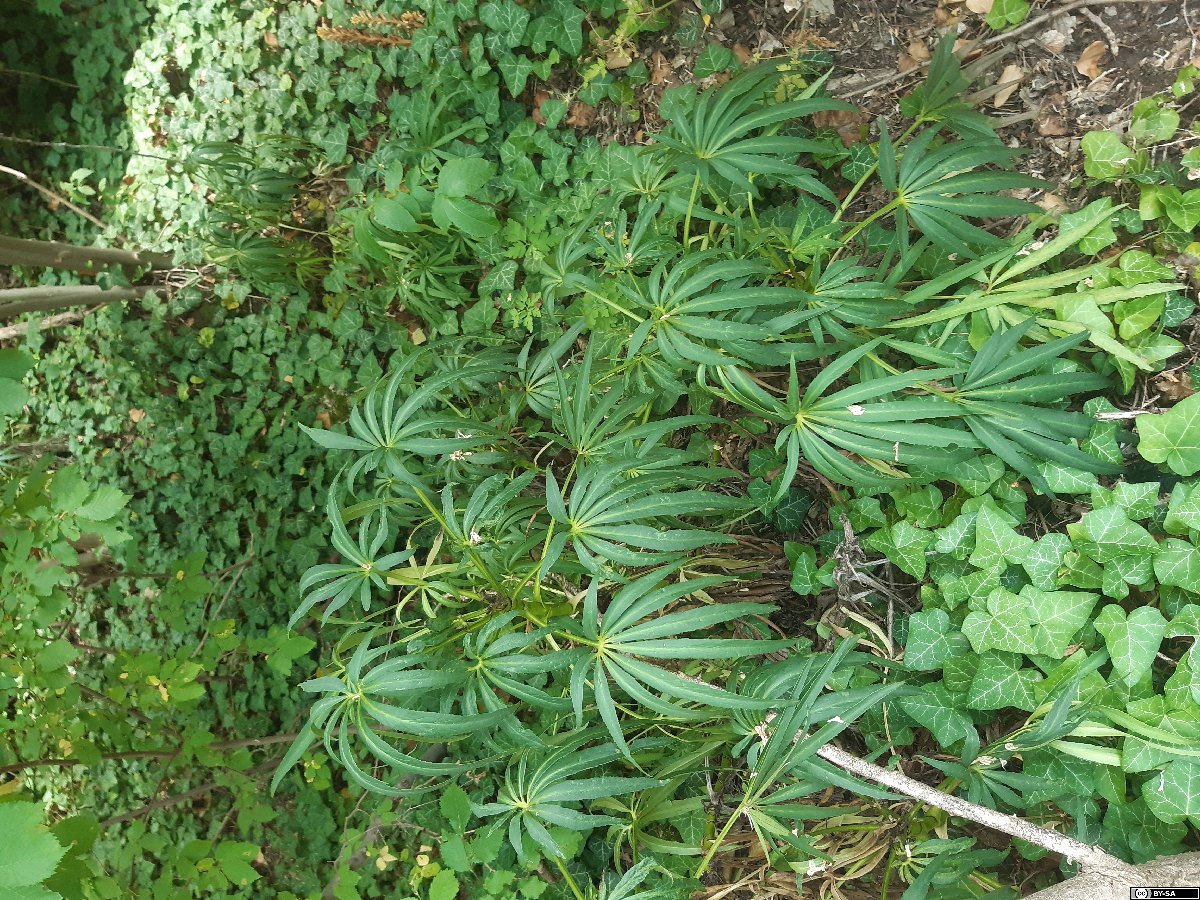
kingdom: Plantae
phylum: Tracheophyta
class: Liliopsida
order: Poales
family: Poaceae
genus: Trisetum
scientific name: Trisetum bertolonii
